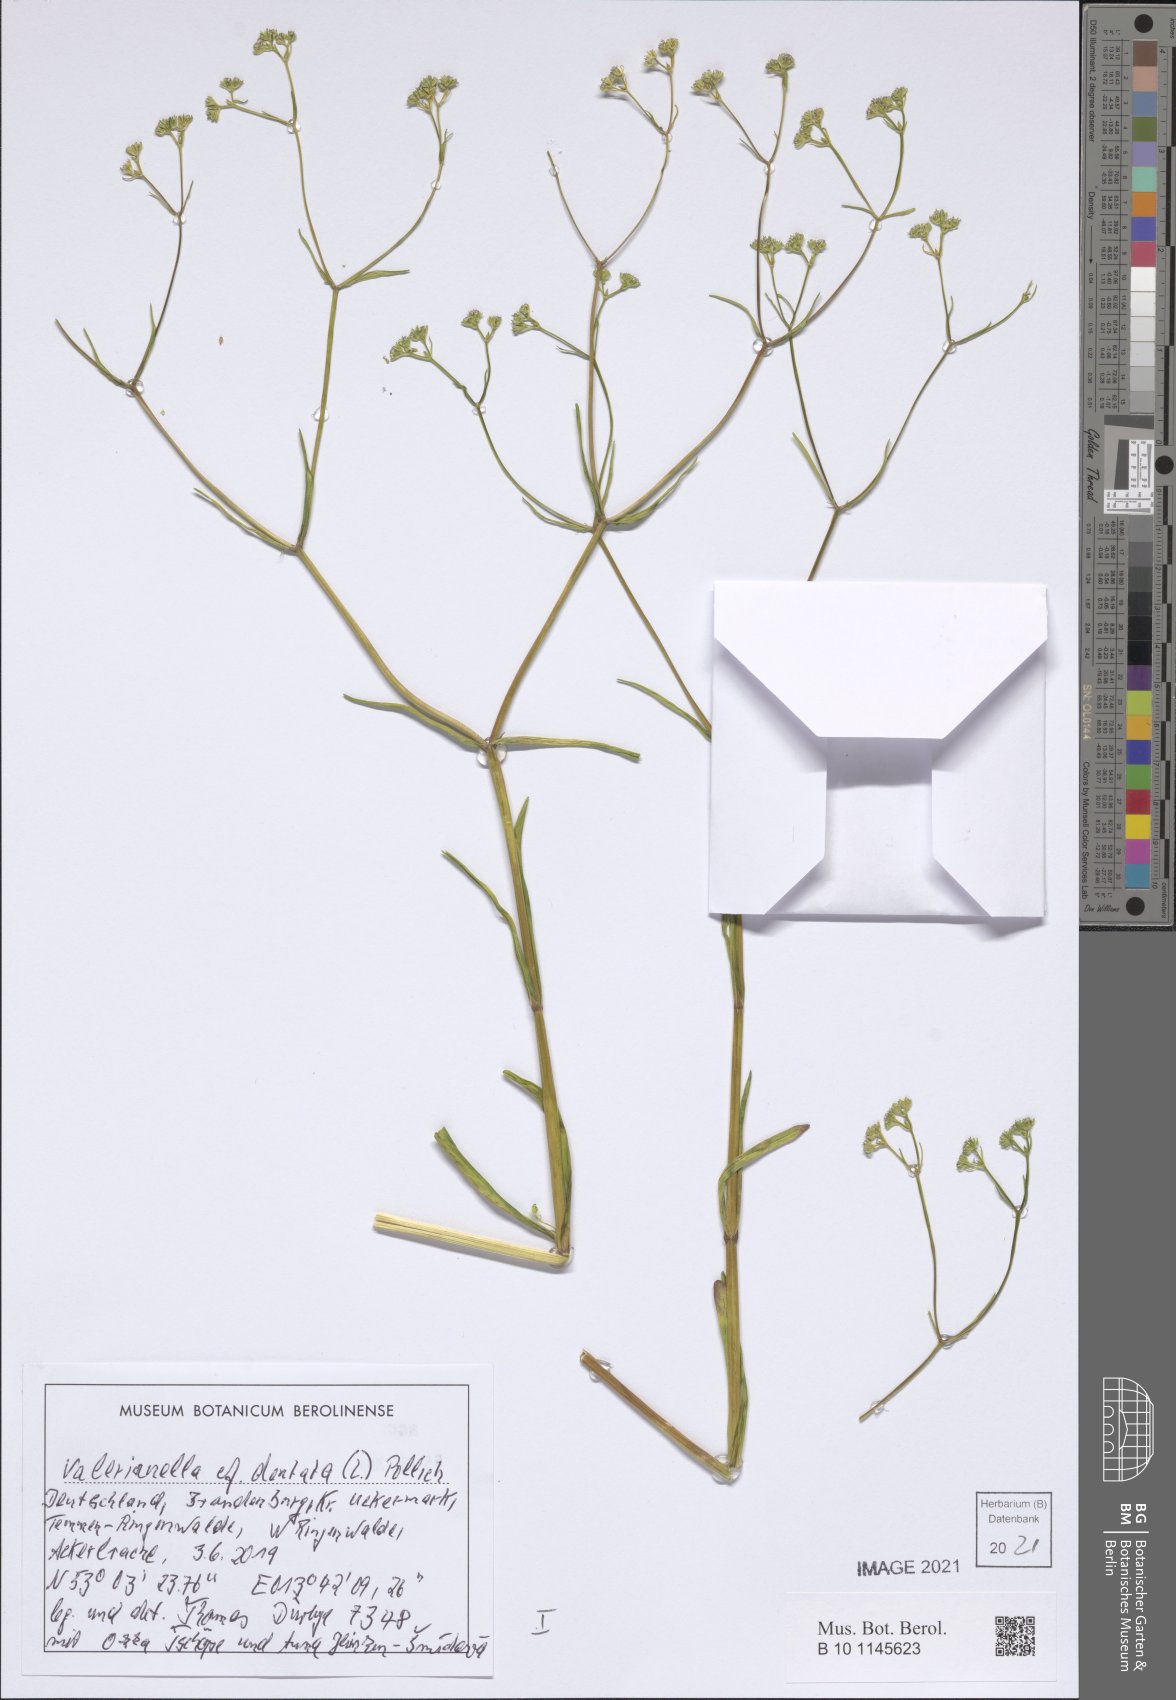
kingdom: Plantae
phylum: Tracheophyta
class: Magnoliopsida
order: Dipsacales
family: Caprifoliaceae
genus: Valerianella
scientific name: Valerianella dentata
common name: Narrow-fruited cornsalad
